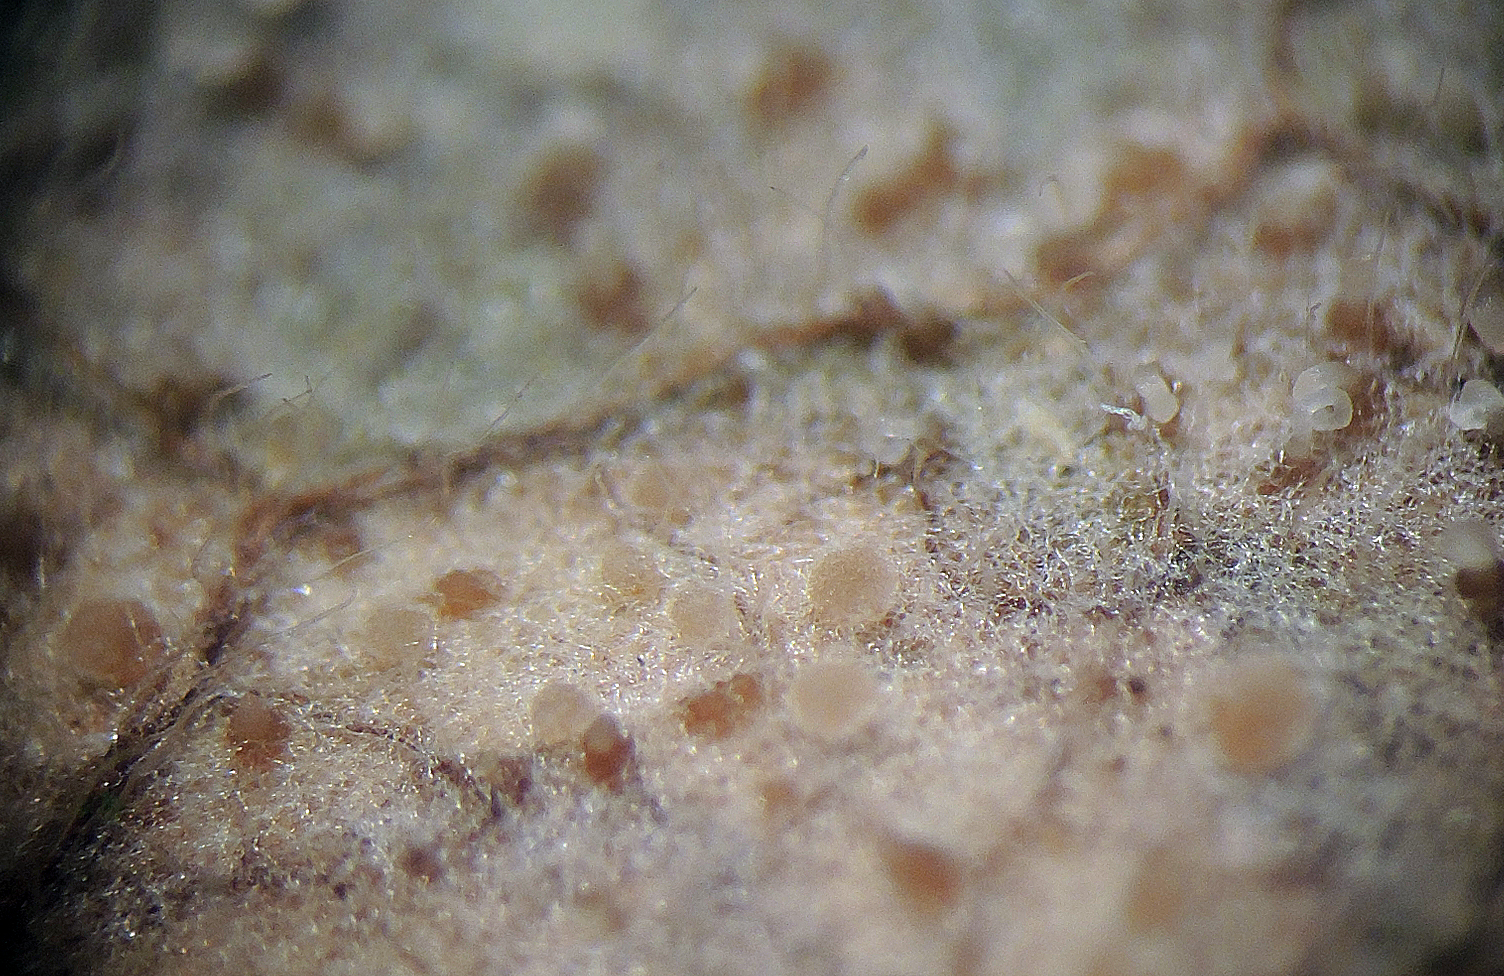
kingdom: Fungi
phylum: Ascomycota
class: Arthoniomycetes
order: Arthoniales
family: Arthoniaceae
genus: Naevia
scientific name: Naevia
